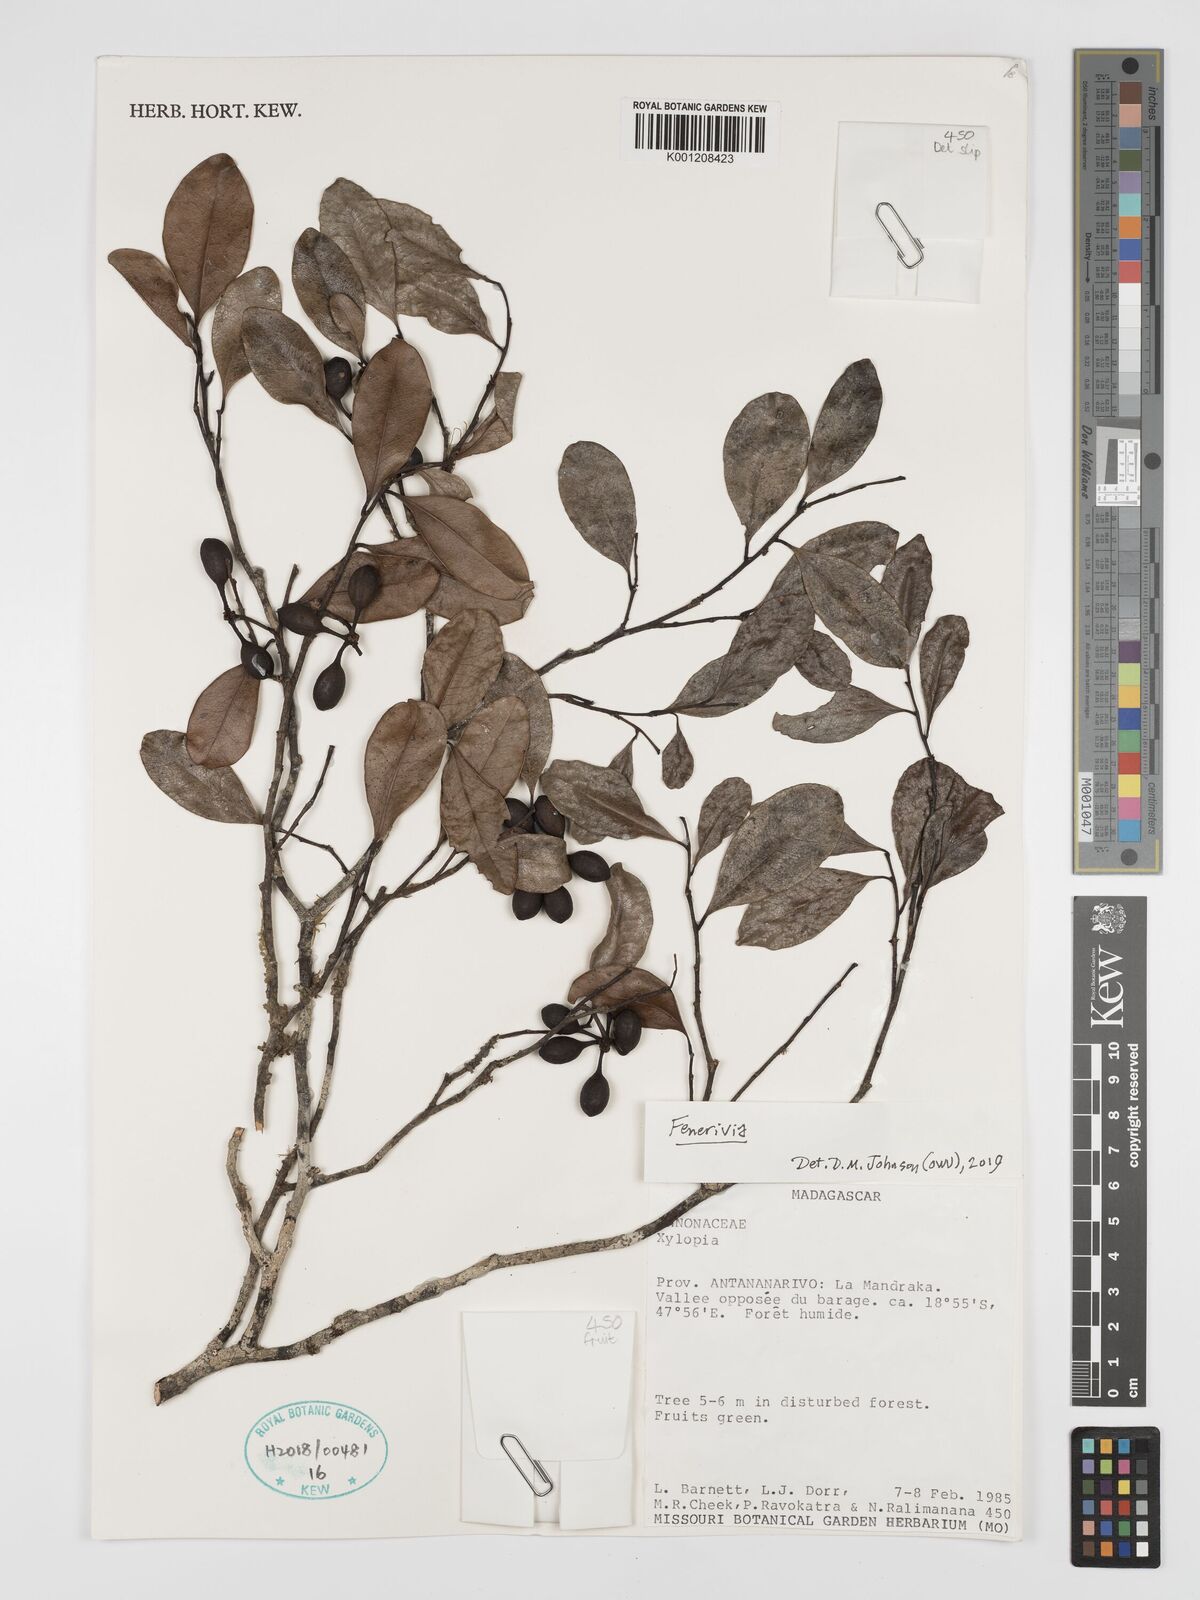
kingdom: Plantae
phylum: Tracheophyta
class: Magnoliopsida
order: Magnoliales
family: Annonaceae
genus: Xylopia
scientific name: Xylopia
